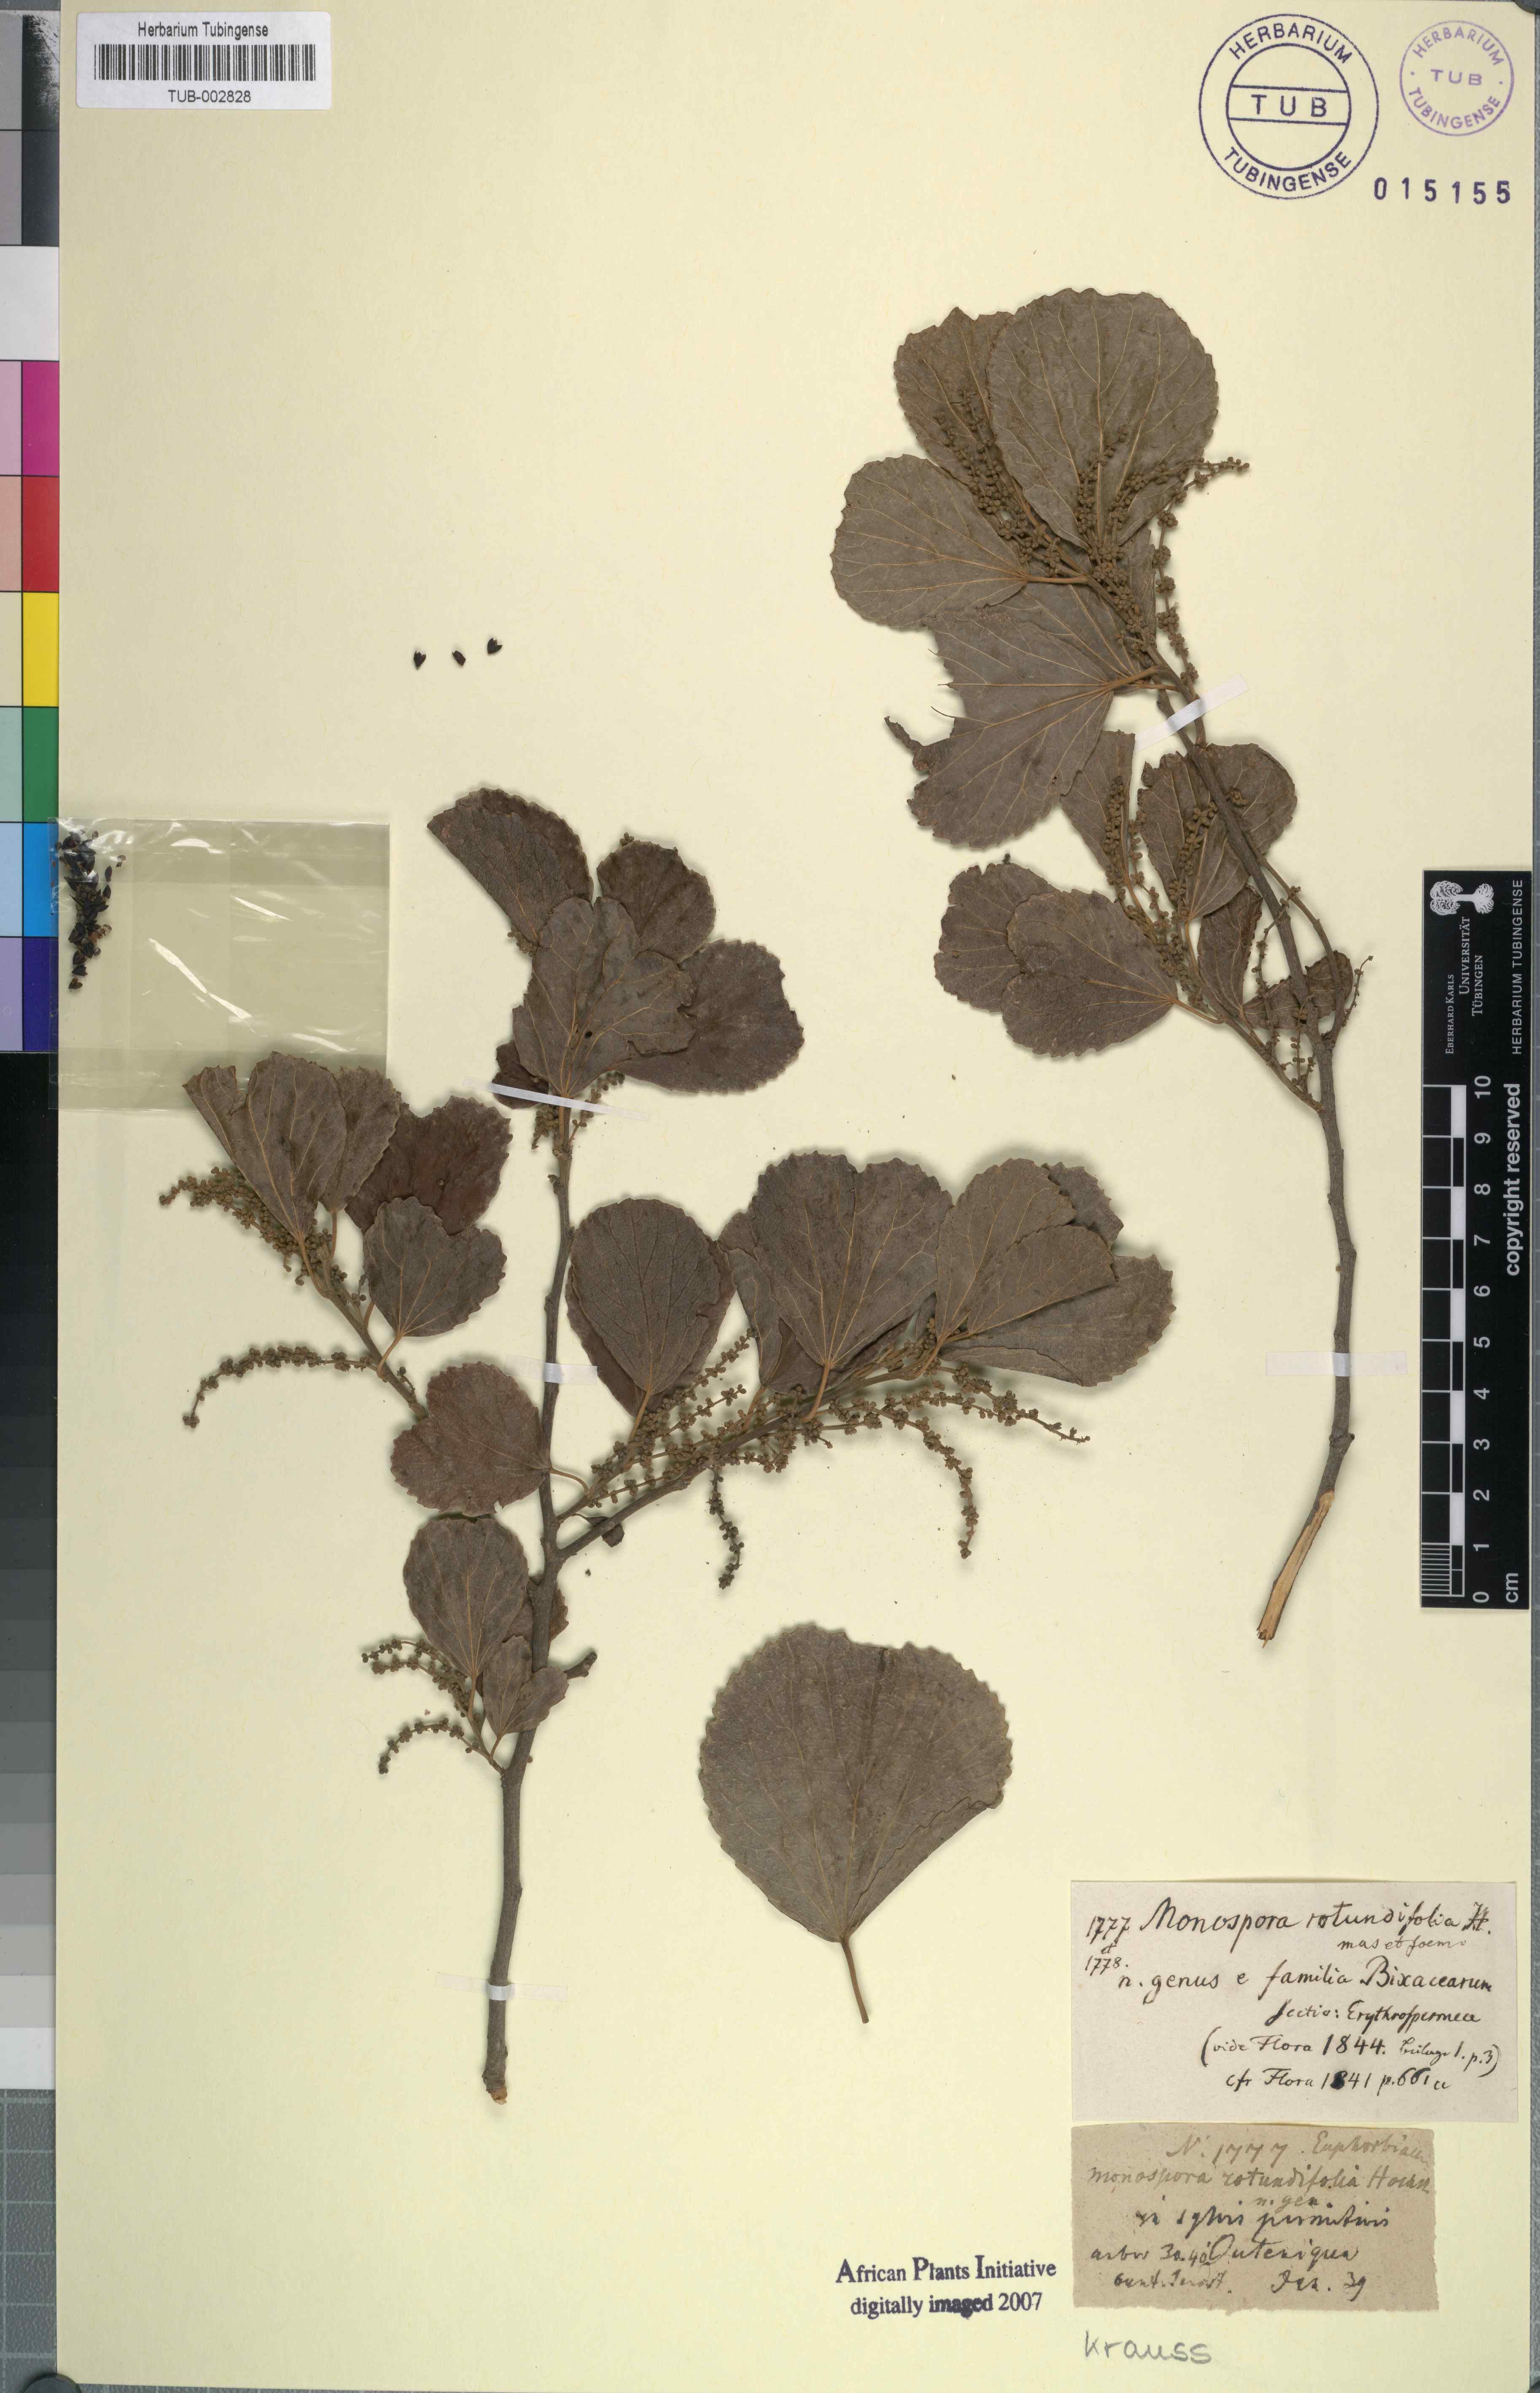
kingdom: Plantae
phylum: Tracheophyta
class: Magnoliopsida
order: Malpighiales
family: Salicaceae
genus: Trimeria
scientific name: Trimeria grandifolia
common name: Wild mulberry
